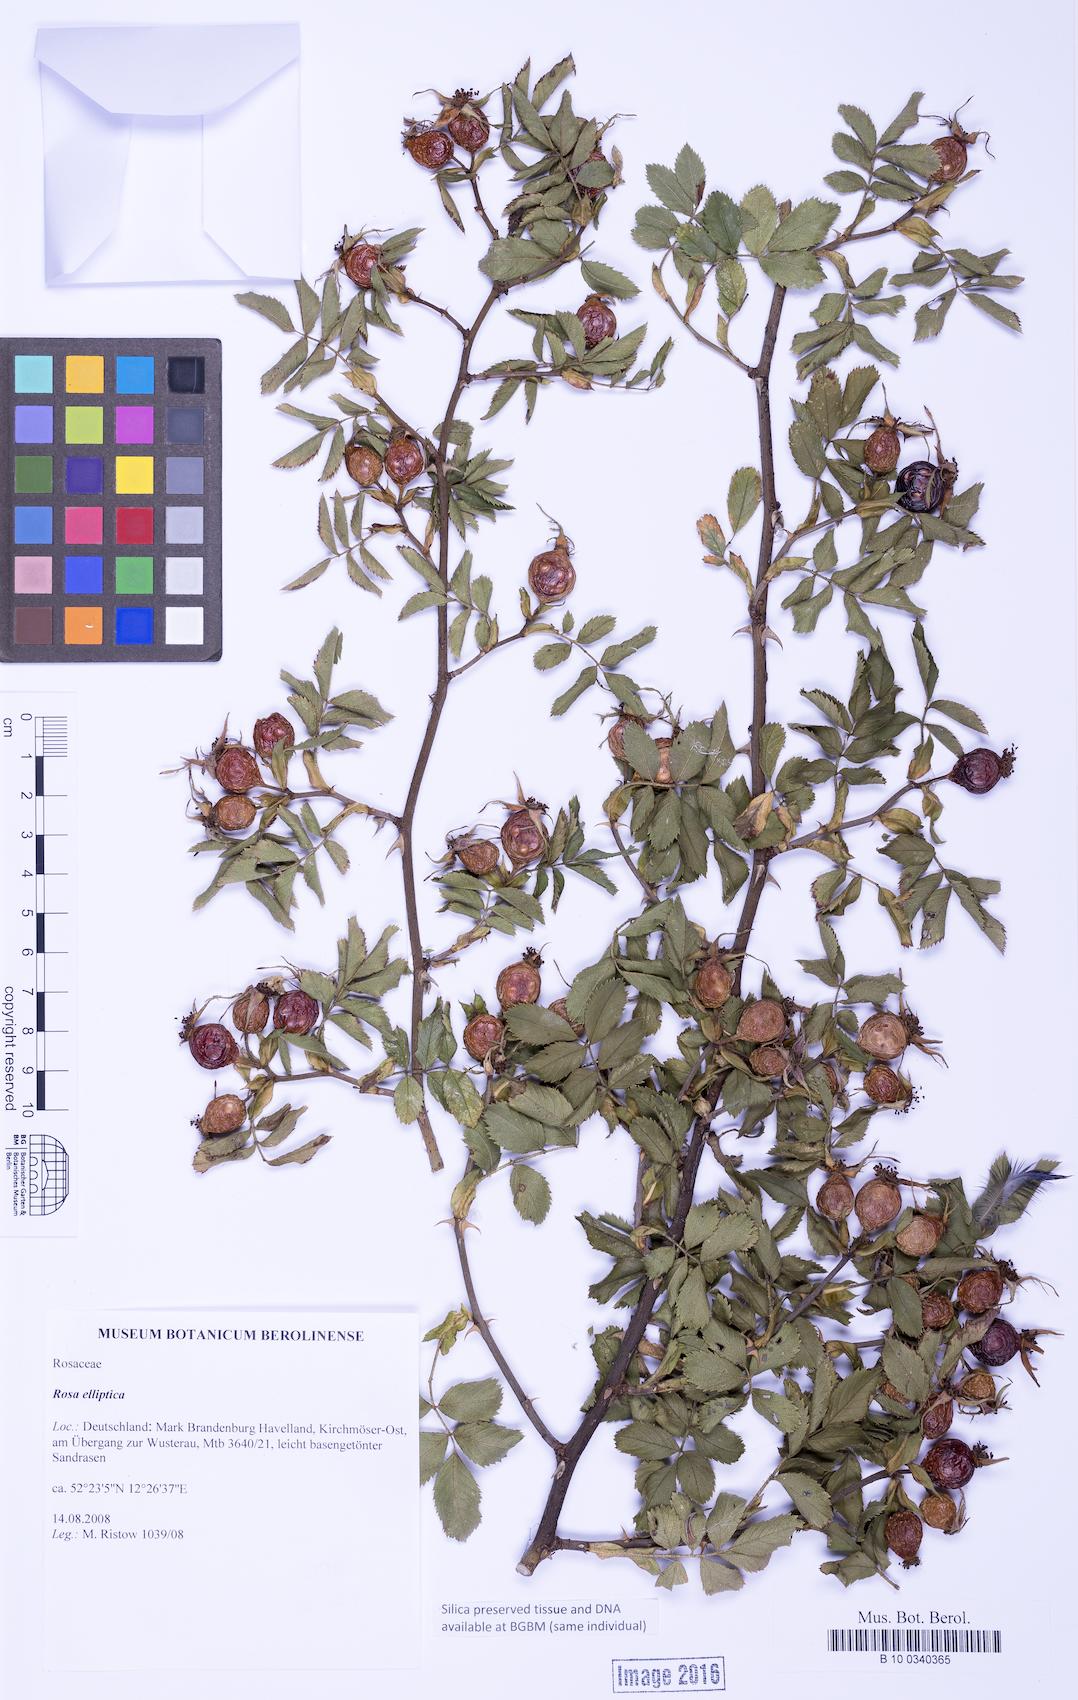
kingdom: Plantae
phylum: Tracheophyta
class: Magnoliopsida
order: Rosales
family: Rosaceae
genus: Rosa
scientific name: Rosa inodora
